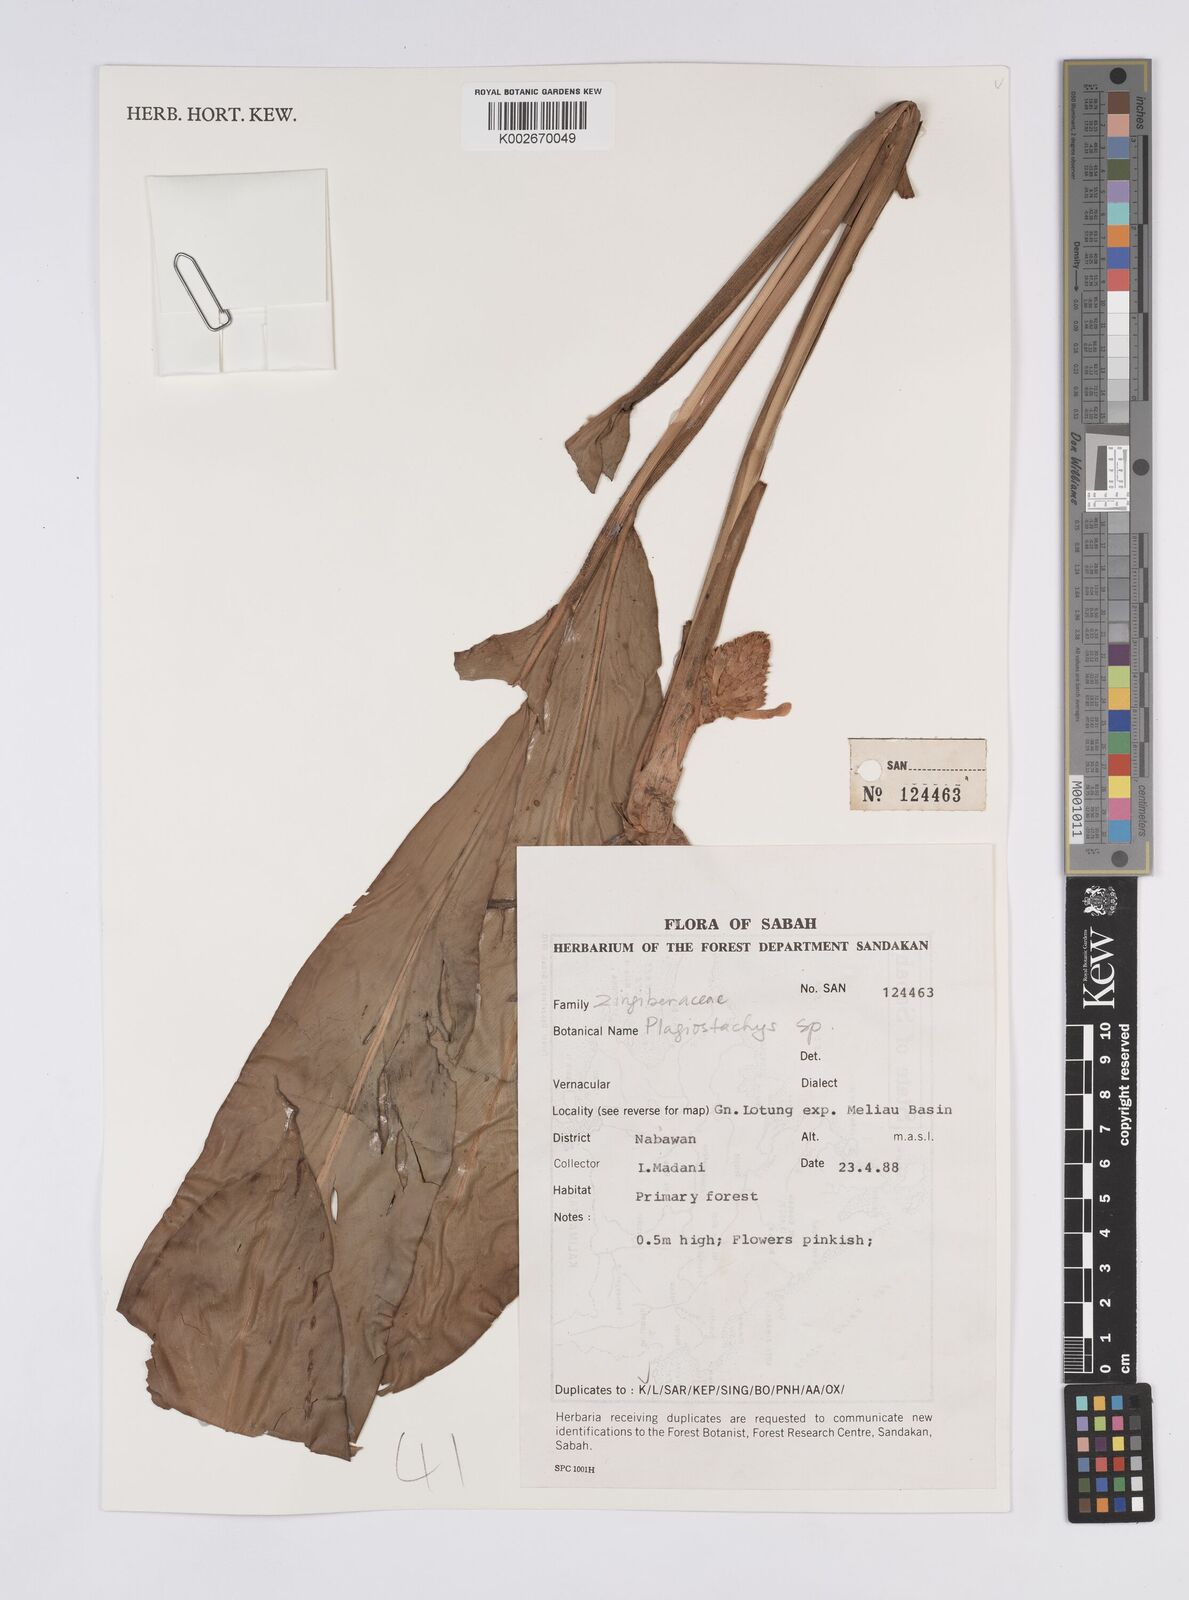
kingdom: Plantae
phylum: Tracheophyta
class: Liliopsida
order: Zingiberales
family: Zingiberaceae
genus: Plagiostachys
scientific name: Plagiostachys
